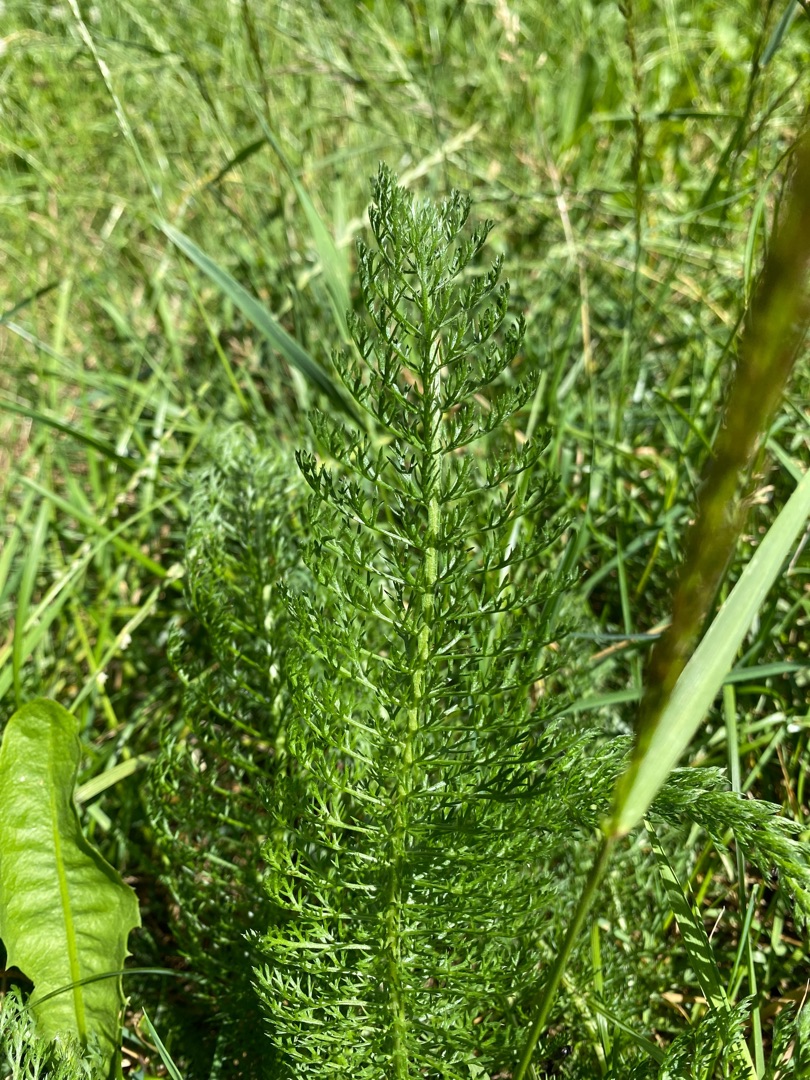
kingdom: Plantae
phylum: Tracheophyta
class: Magnoliopsida
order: Asterales
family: Asteraceae
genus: Achillea
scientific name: Achillea millefolium
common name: Almindelig røllike
